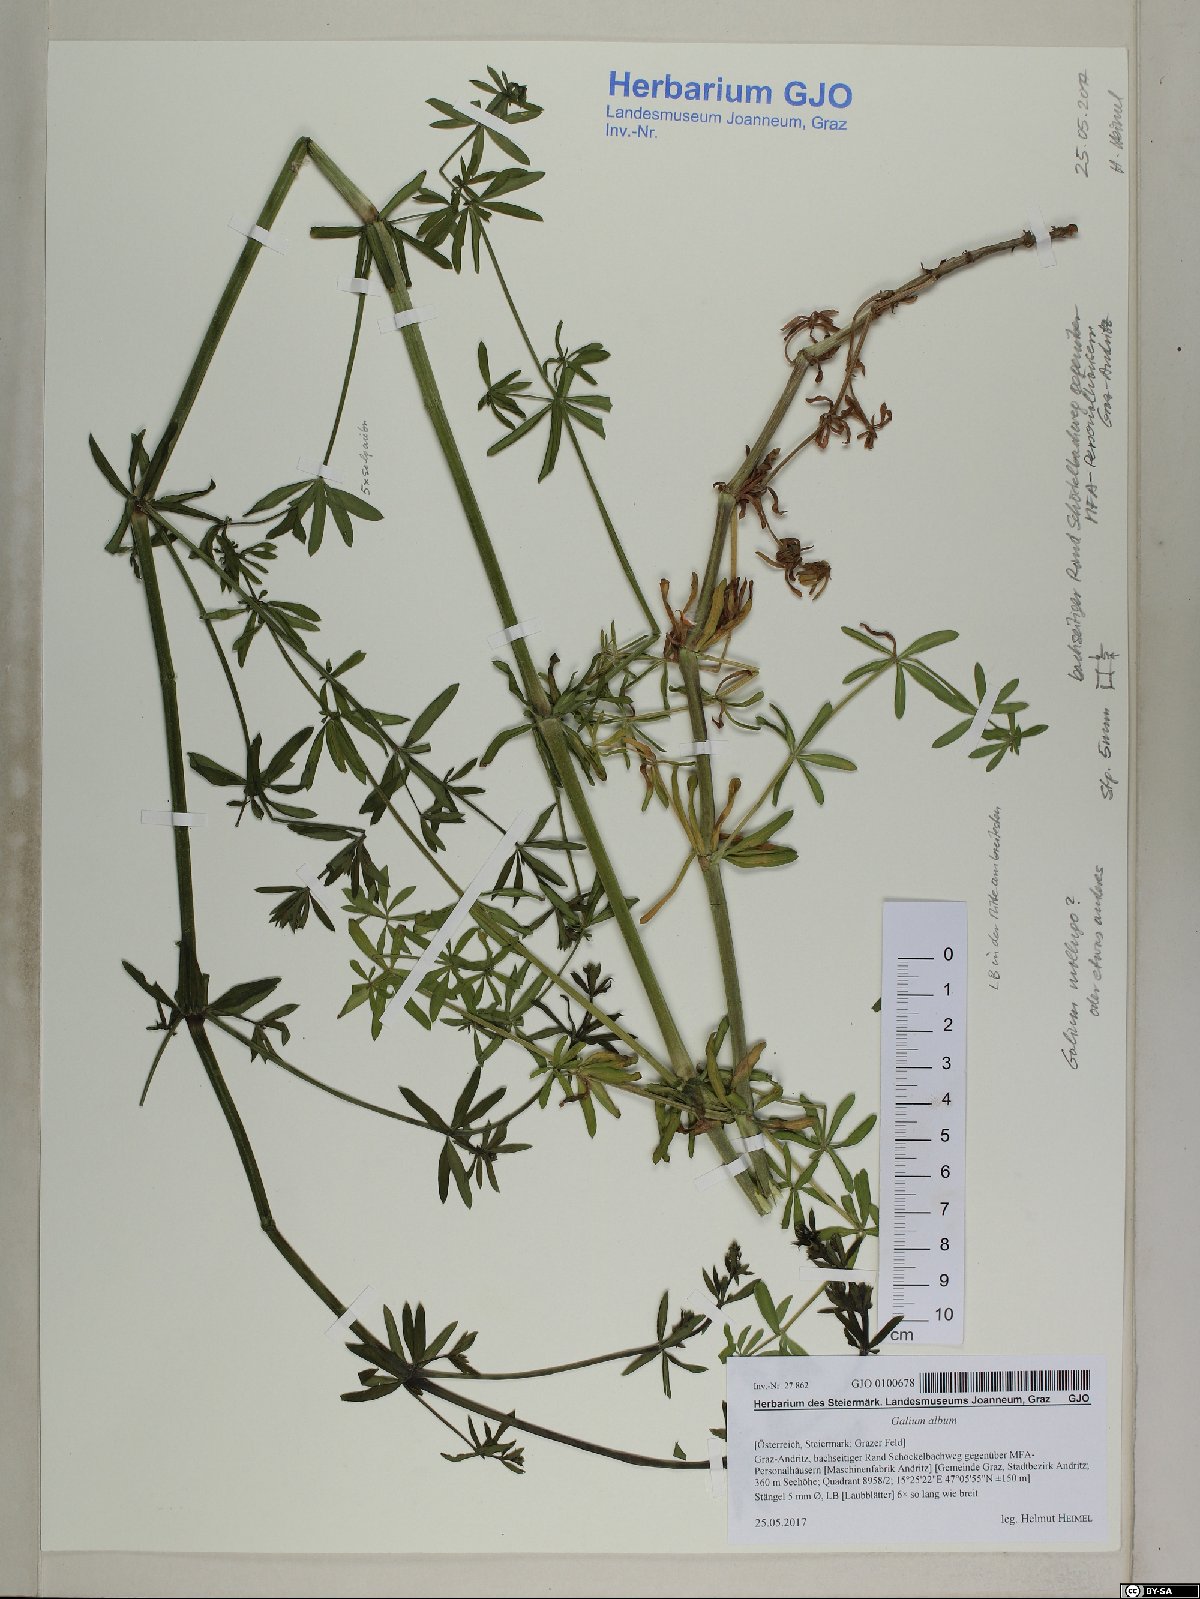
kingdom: Plantae
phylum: Tracheophyta
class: Magnoliopsida
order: Gentianales
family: Rubiaceae
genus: Galium
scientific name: Galium album
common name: White bedstraw
